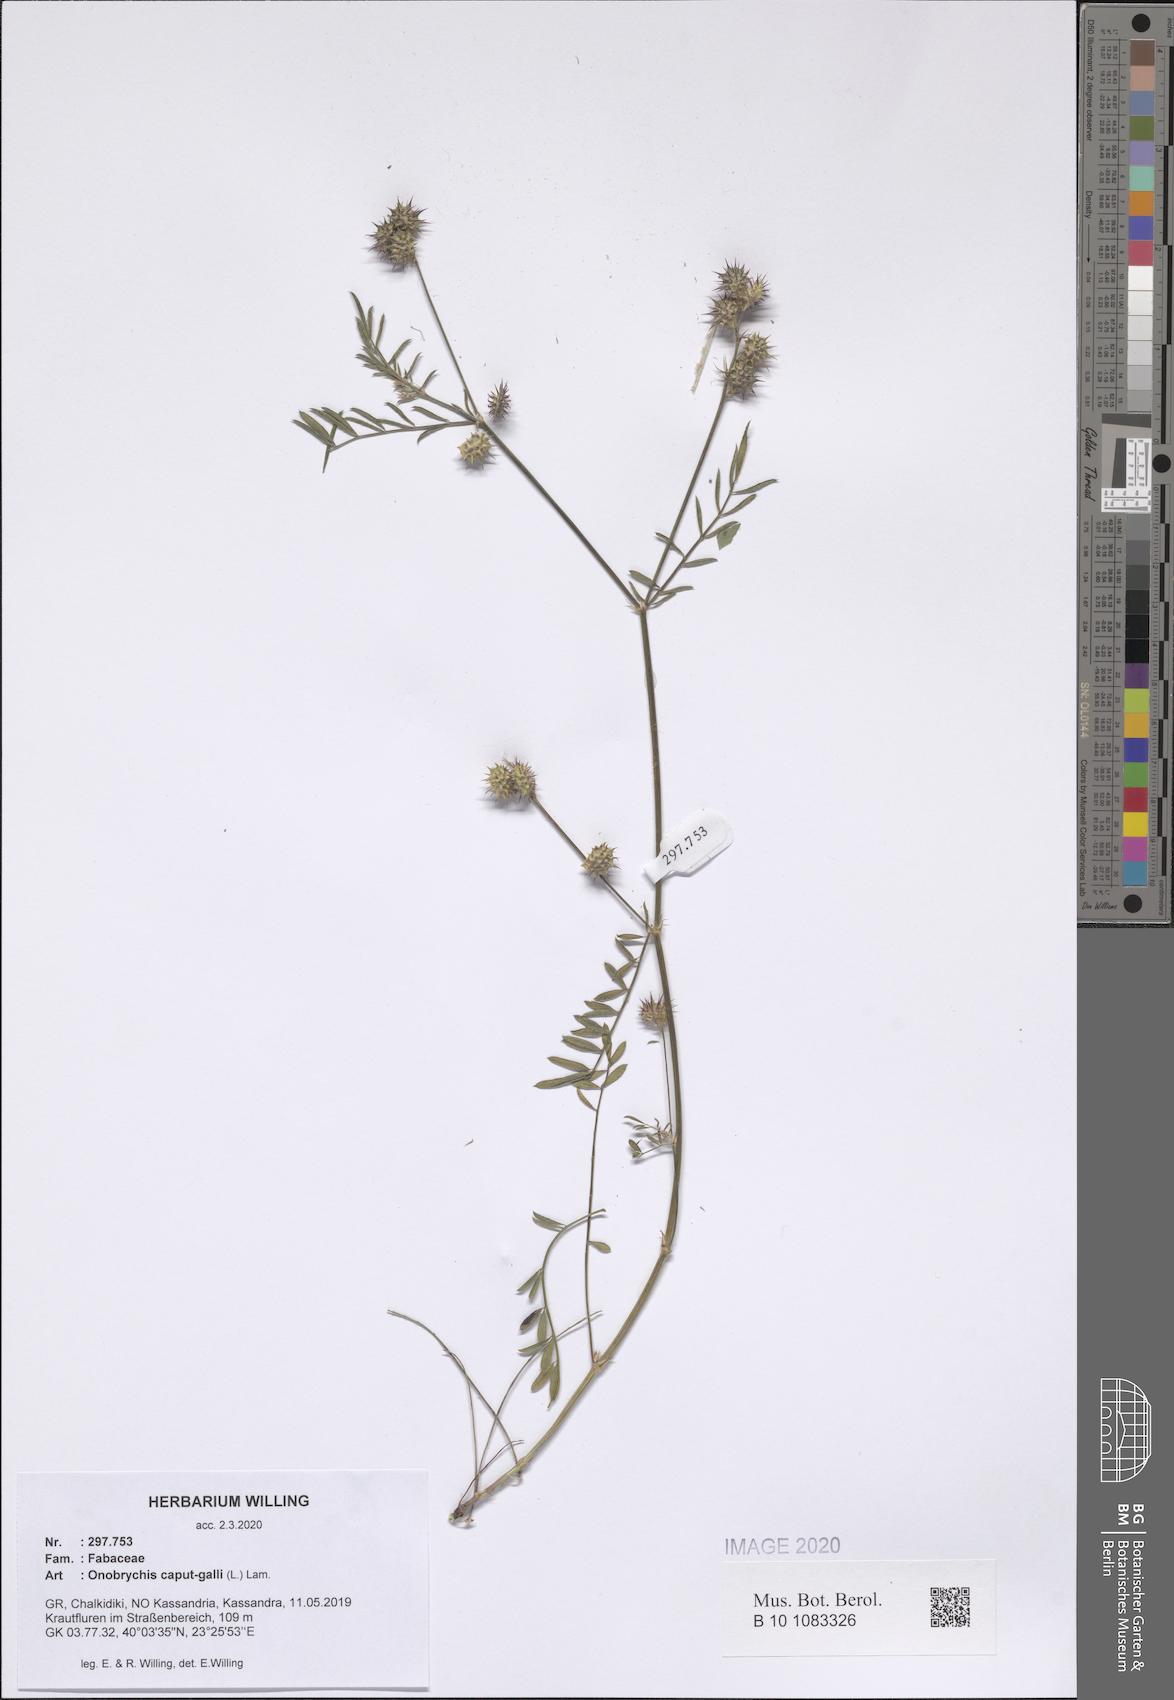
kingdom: Plantae
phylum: Tracheophyta
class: Magnoliopsida
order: Fabales
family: Fabaceae
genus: Onobrychis
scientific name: Onobrychis caput-galli
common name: Cockscomb sainfoin
